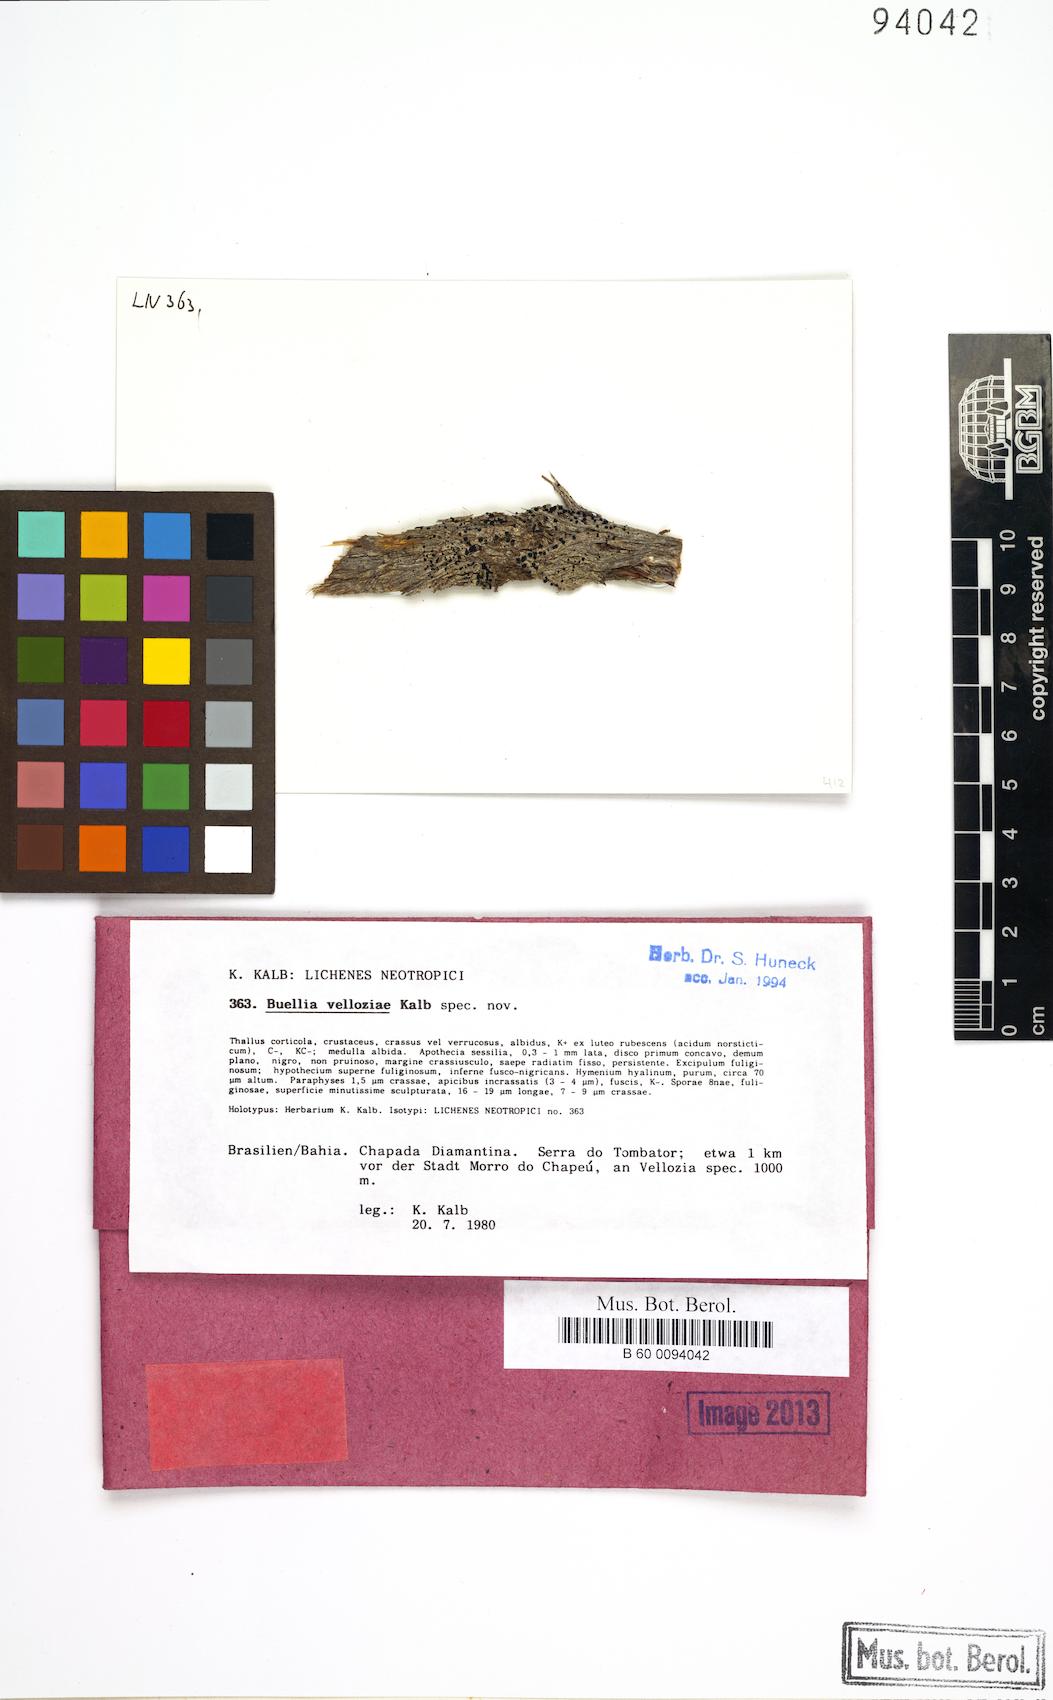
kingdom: Fungi
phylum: Ascomycota
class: Lecanoromycetes
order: Caliciales
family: Caliciaceae
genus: Hypoflavia
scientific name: Hypoflavia velloziae
